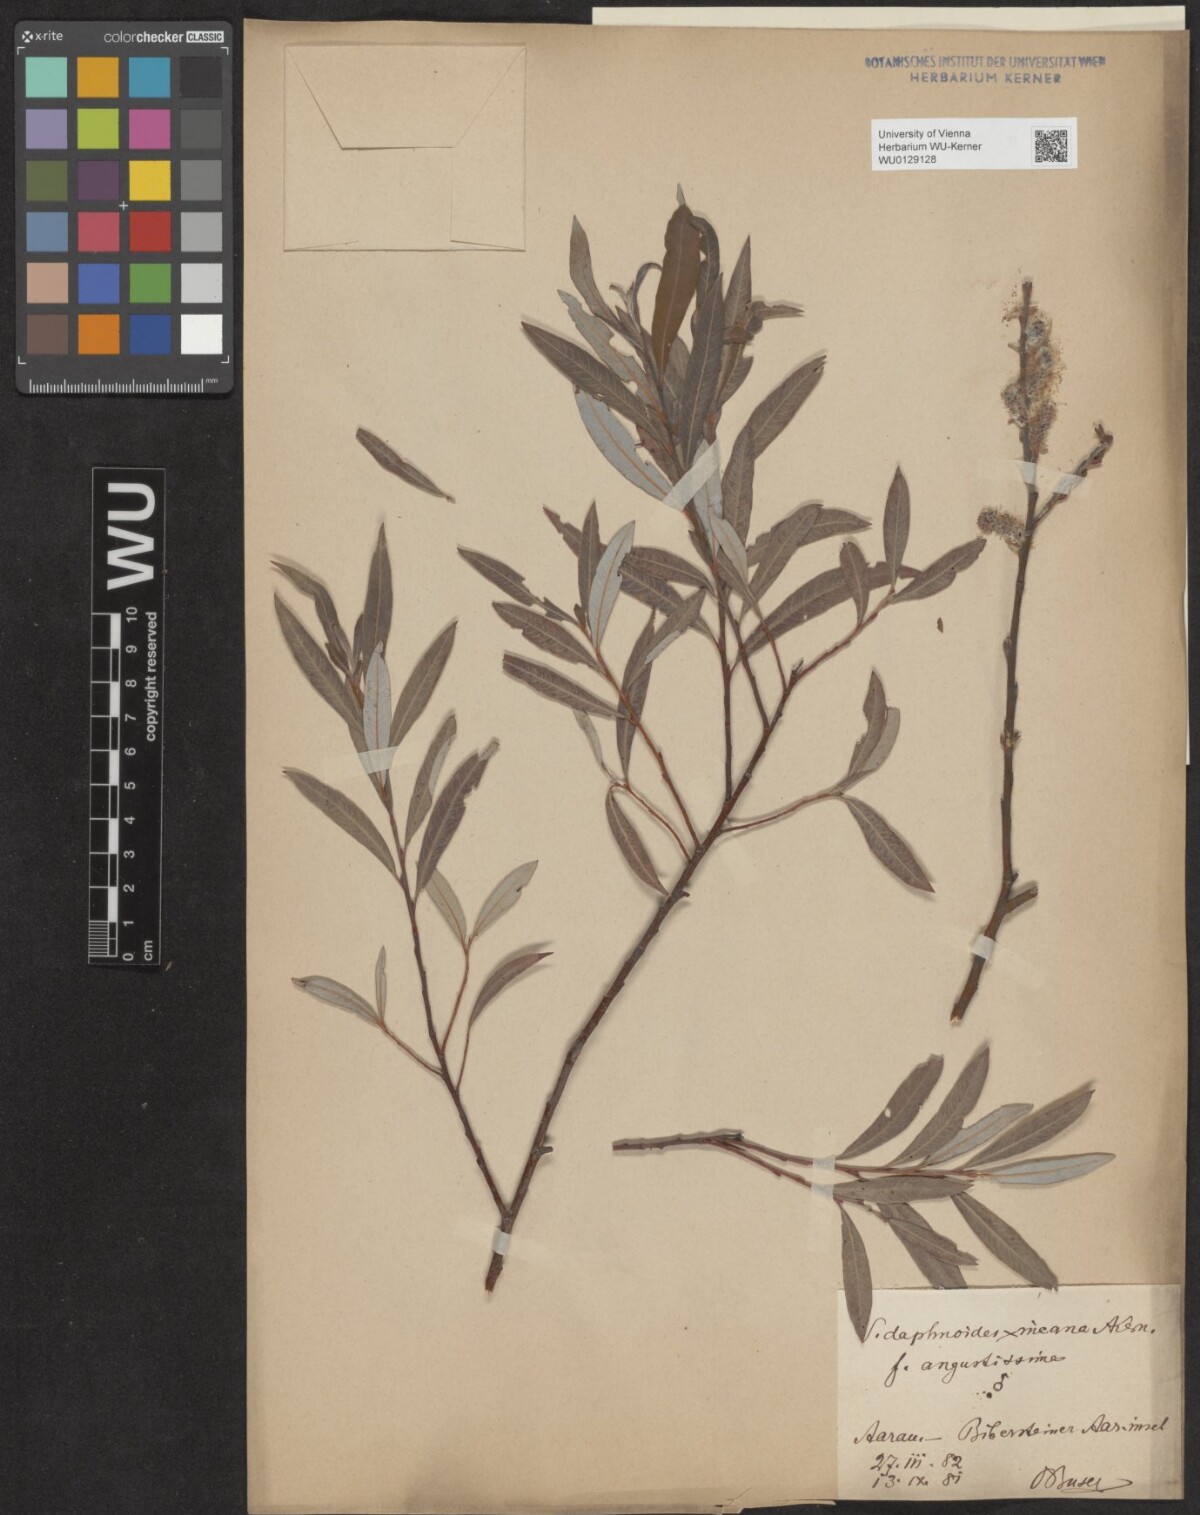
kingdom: Plantae
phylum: Tracheophyta
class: Magnoliopsida
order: Malpighiales
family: Salicaceae
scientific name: Salicaceae
